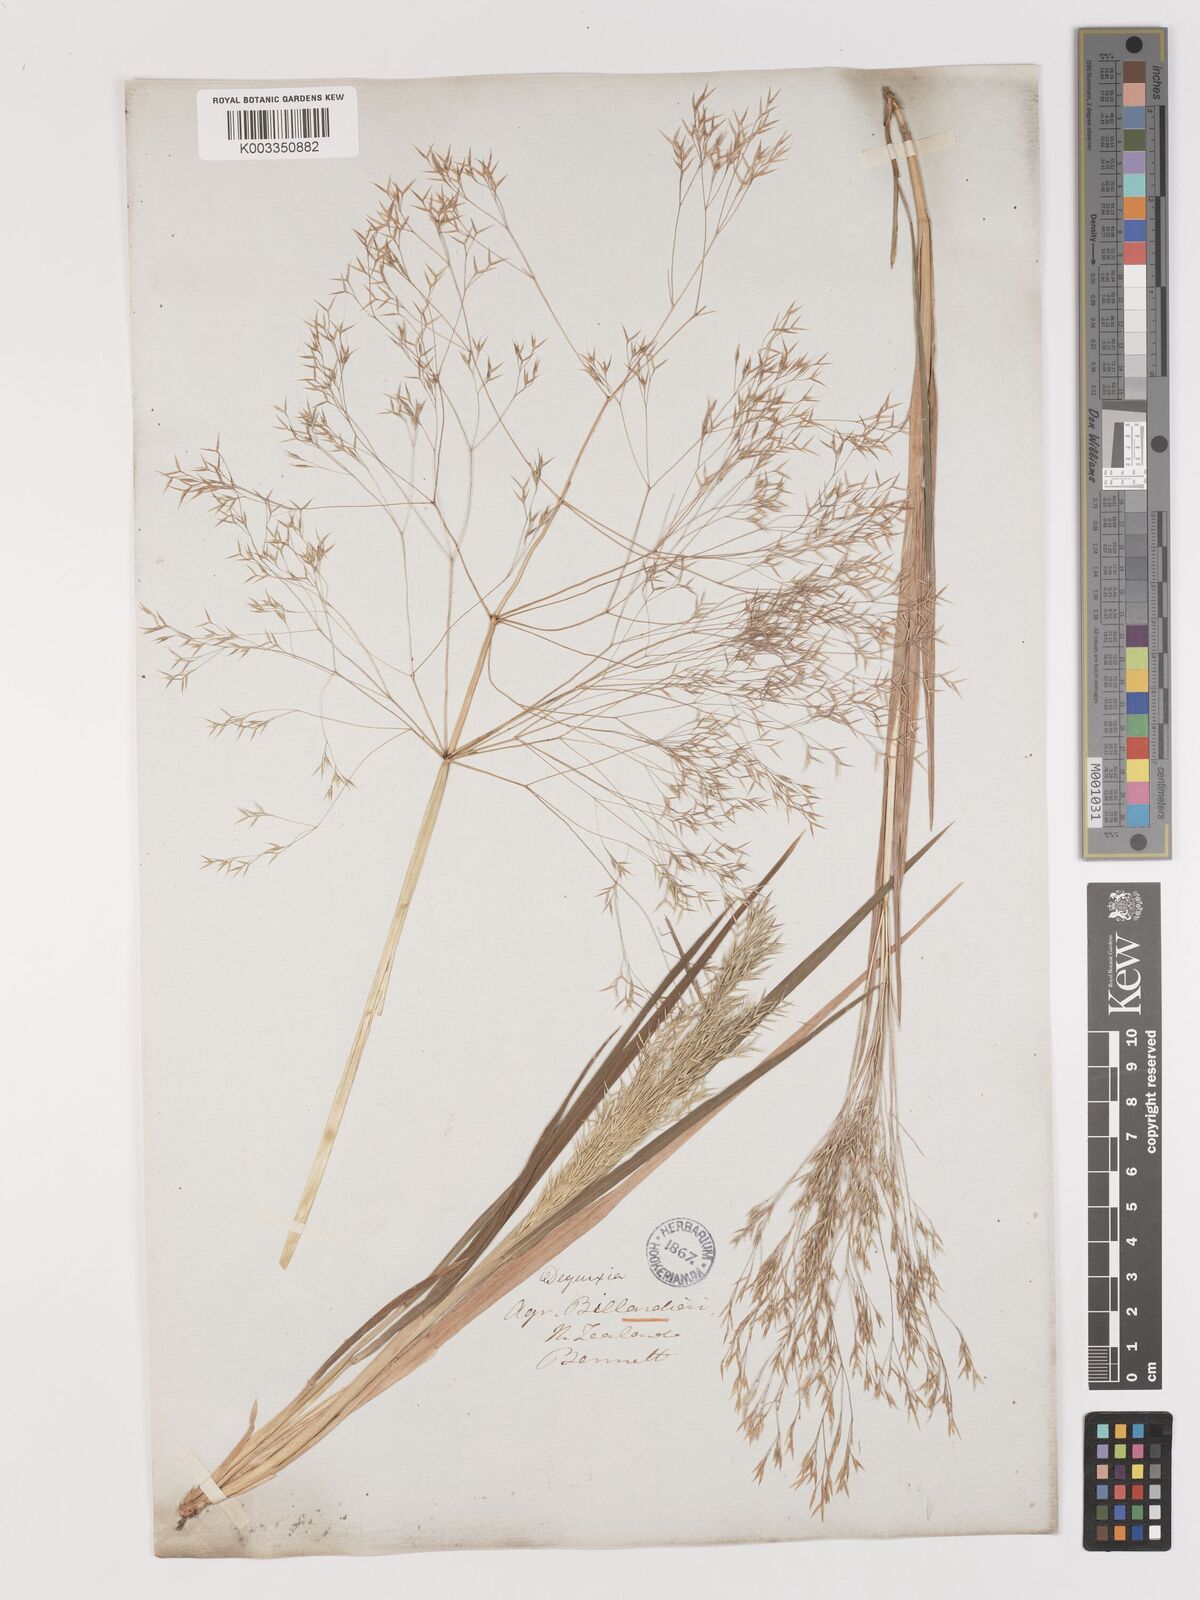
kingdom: Plantae
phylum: Tracheophyta
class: Liliopsida
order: Poales
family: Poaceae
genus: Lachnagrostis
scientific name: Lachnagrostis billardierei
